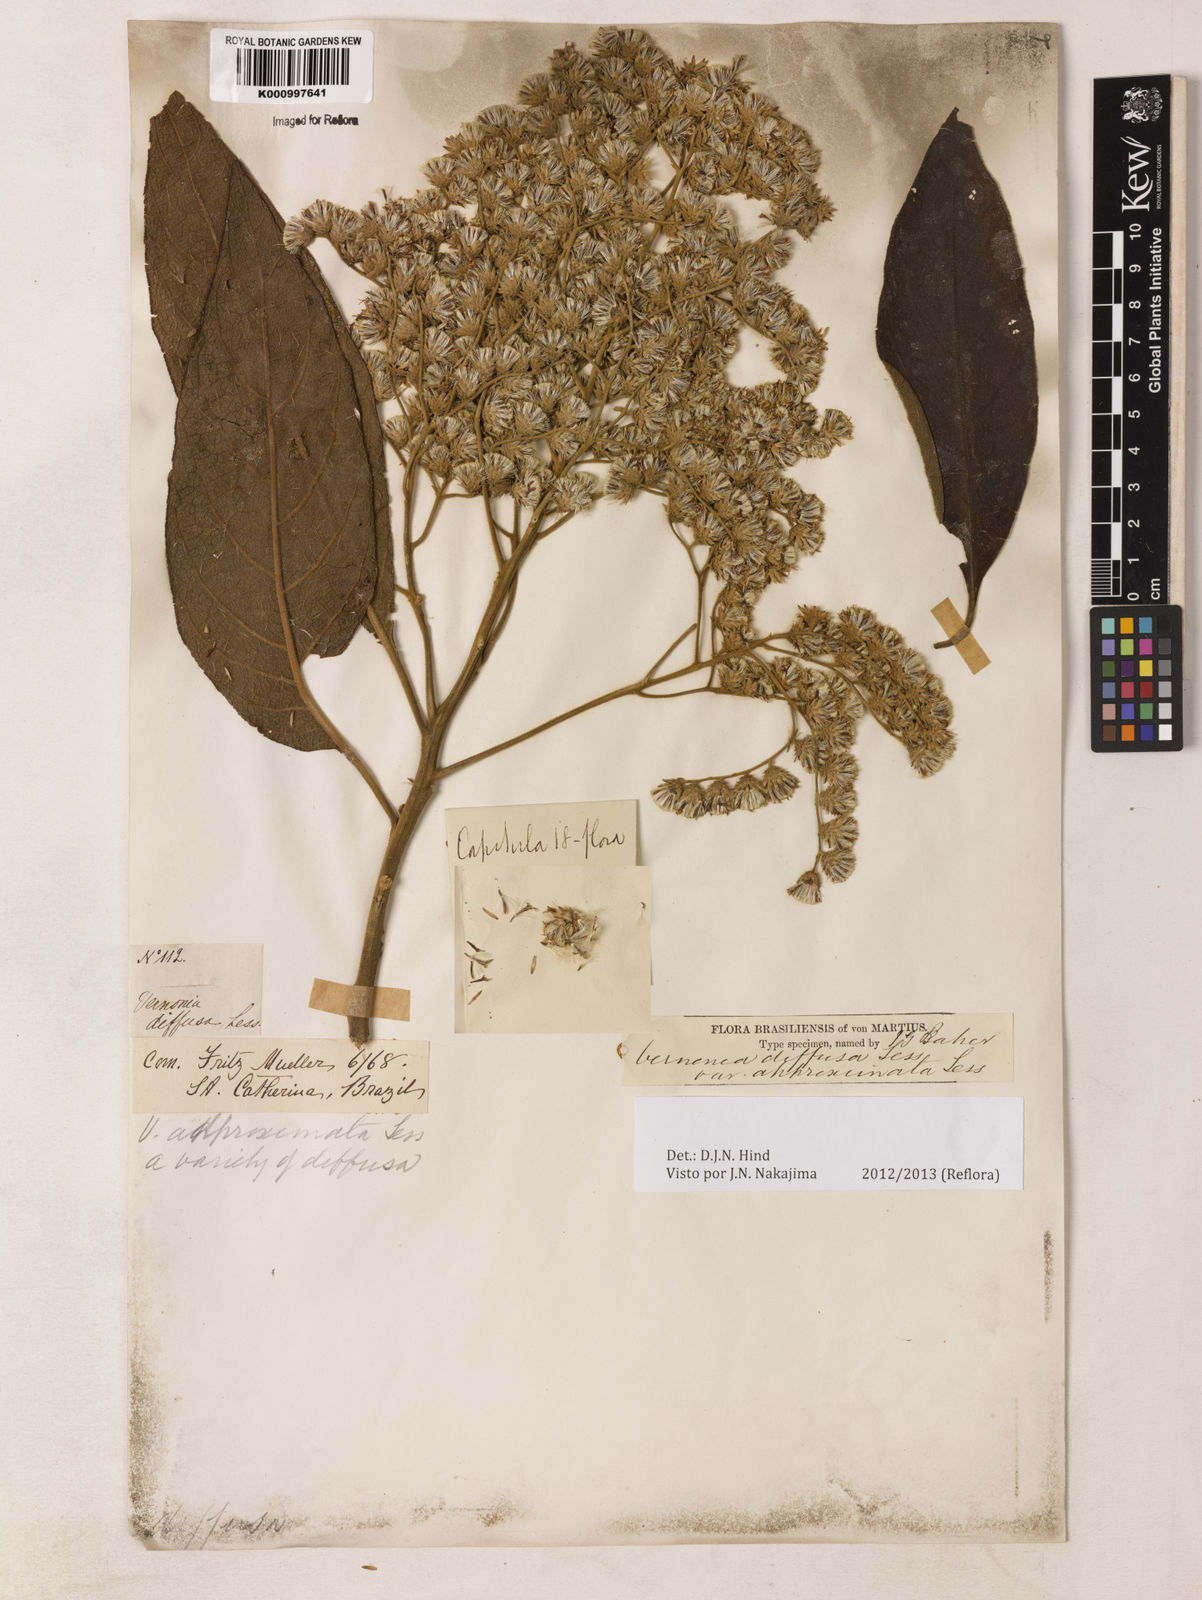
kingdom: Plantae
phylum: Tracheophyta
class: Magnoliopsida
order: Asterales
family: Asteraceae
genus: Vernonanthura
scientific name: Vernonanthura divaricata
